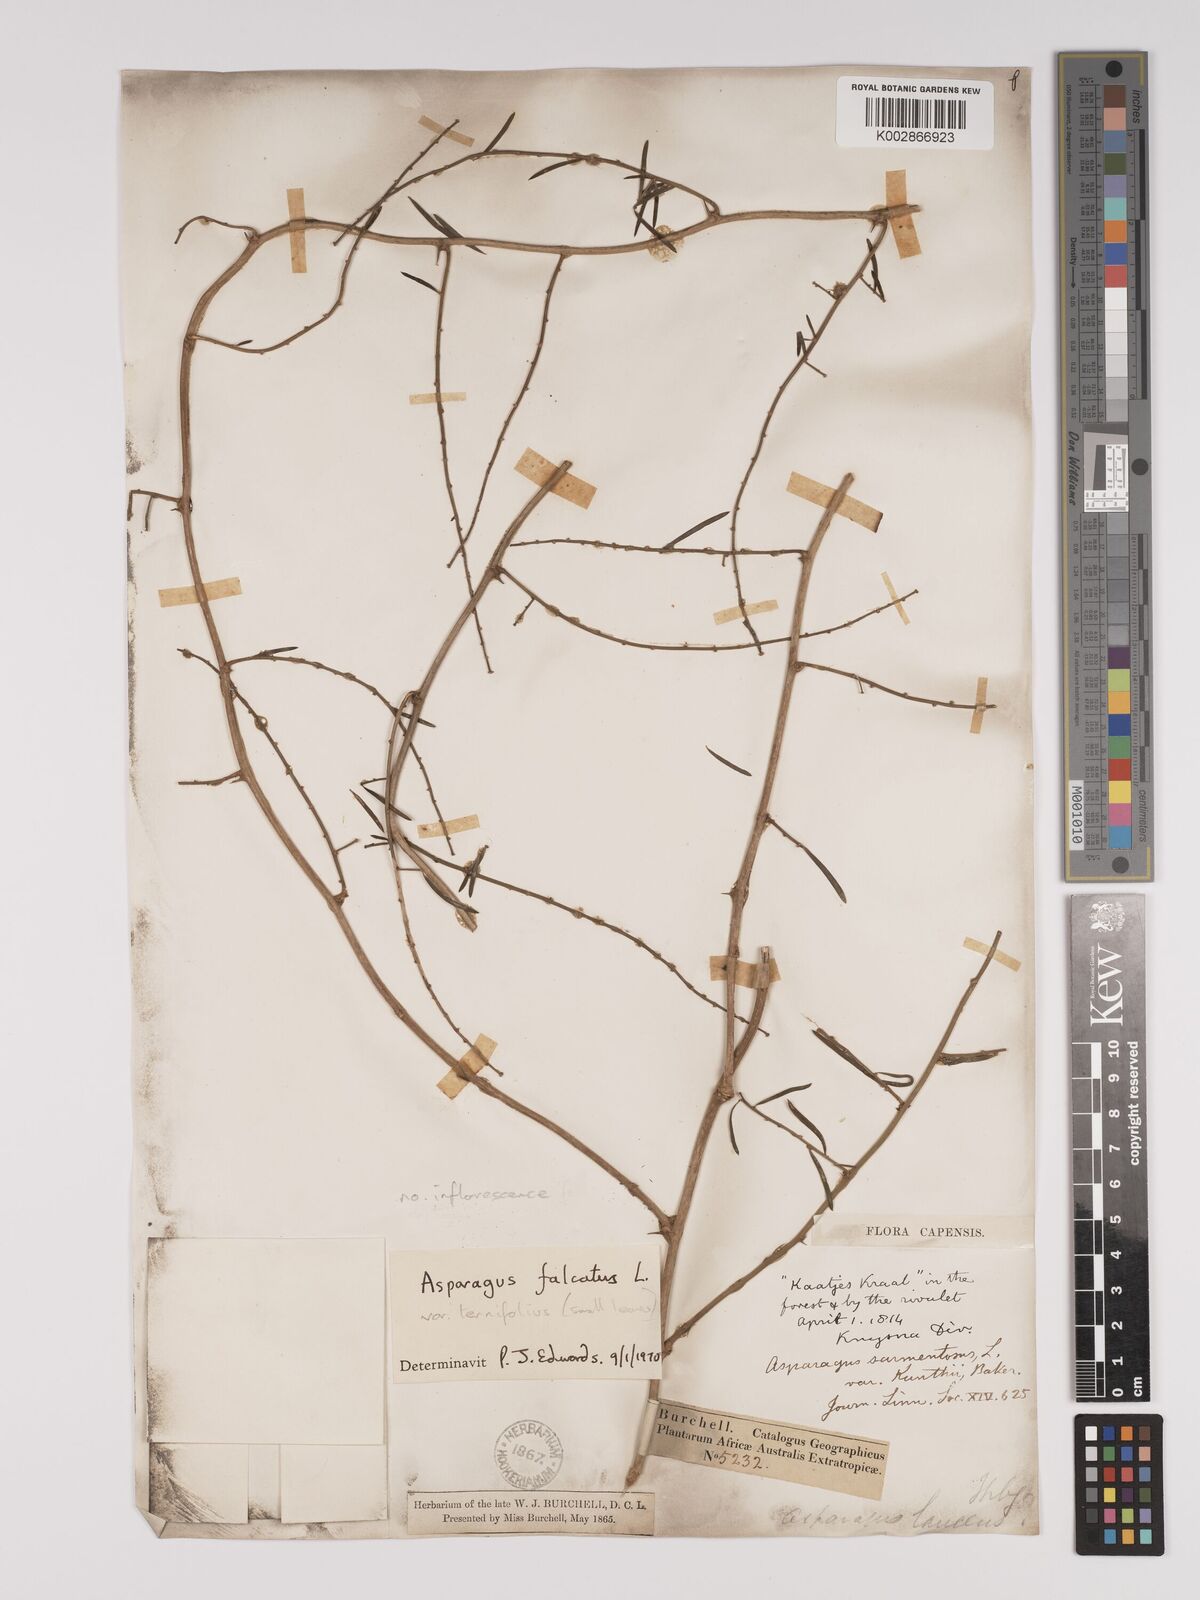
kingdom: Plantae
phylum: Tracheophyta
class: Liliopsida
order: Asparagales
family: Asparagaceae
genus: Asparagus
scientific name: Asparagus falcatus
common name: Asparagus
